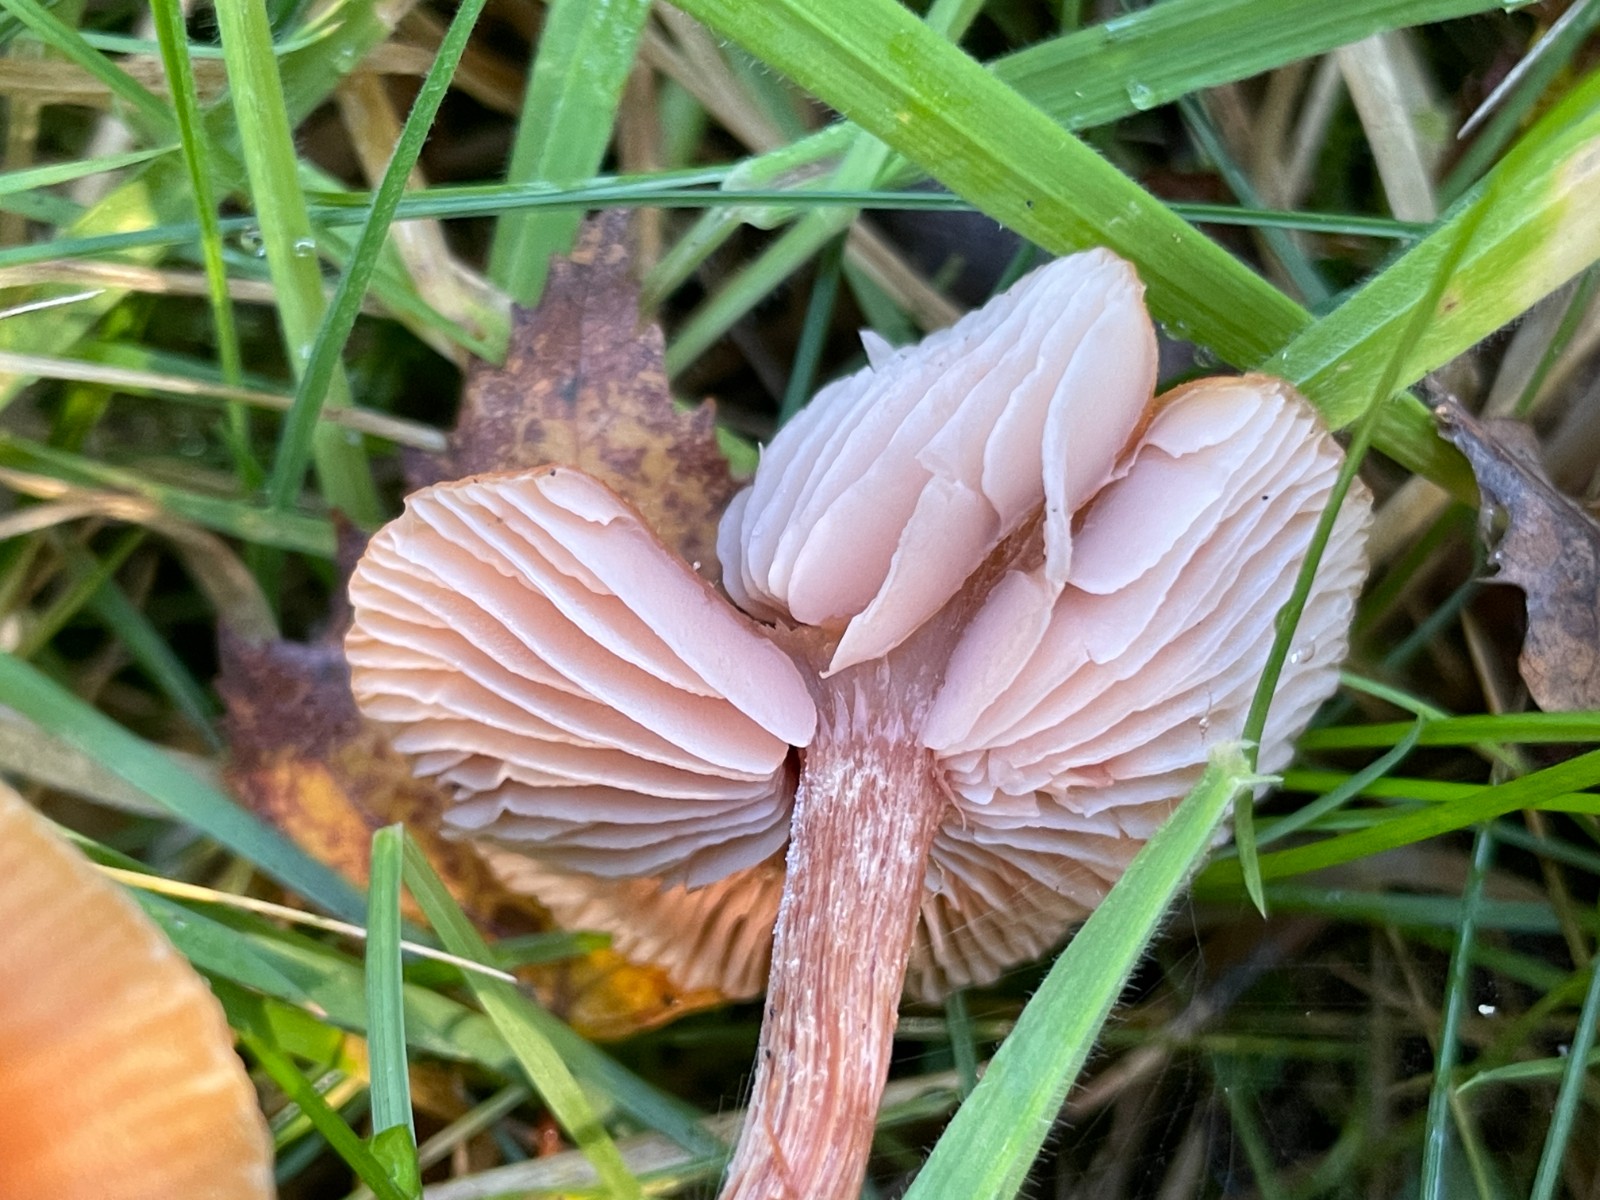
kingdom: Fungi
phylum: Basidiomycota
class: Agaricomycetes
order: Agaricales
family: Hydnangiaceae
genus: Laccaria
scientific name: Laccaria proxima
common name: stor ametysthat
